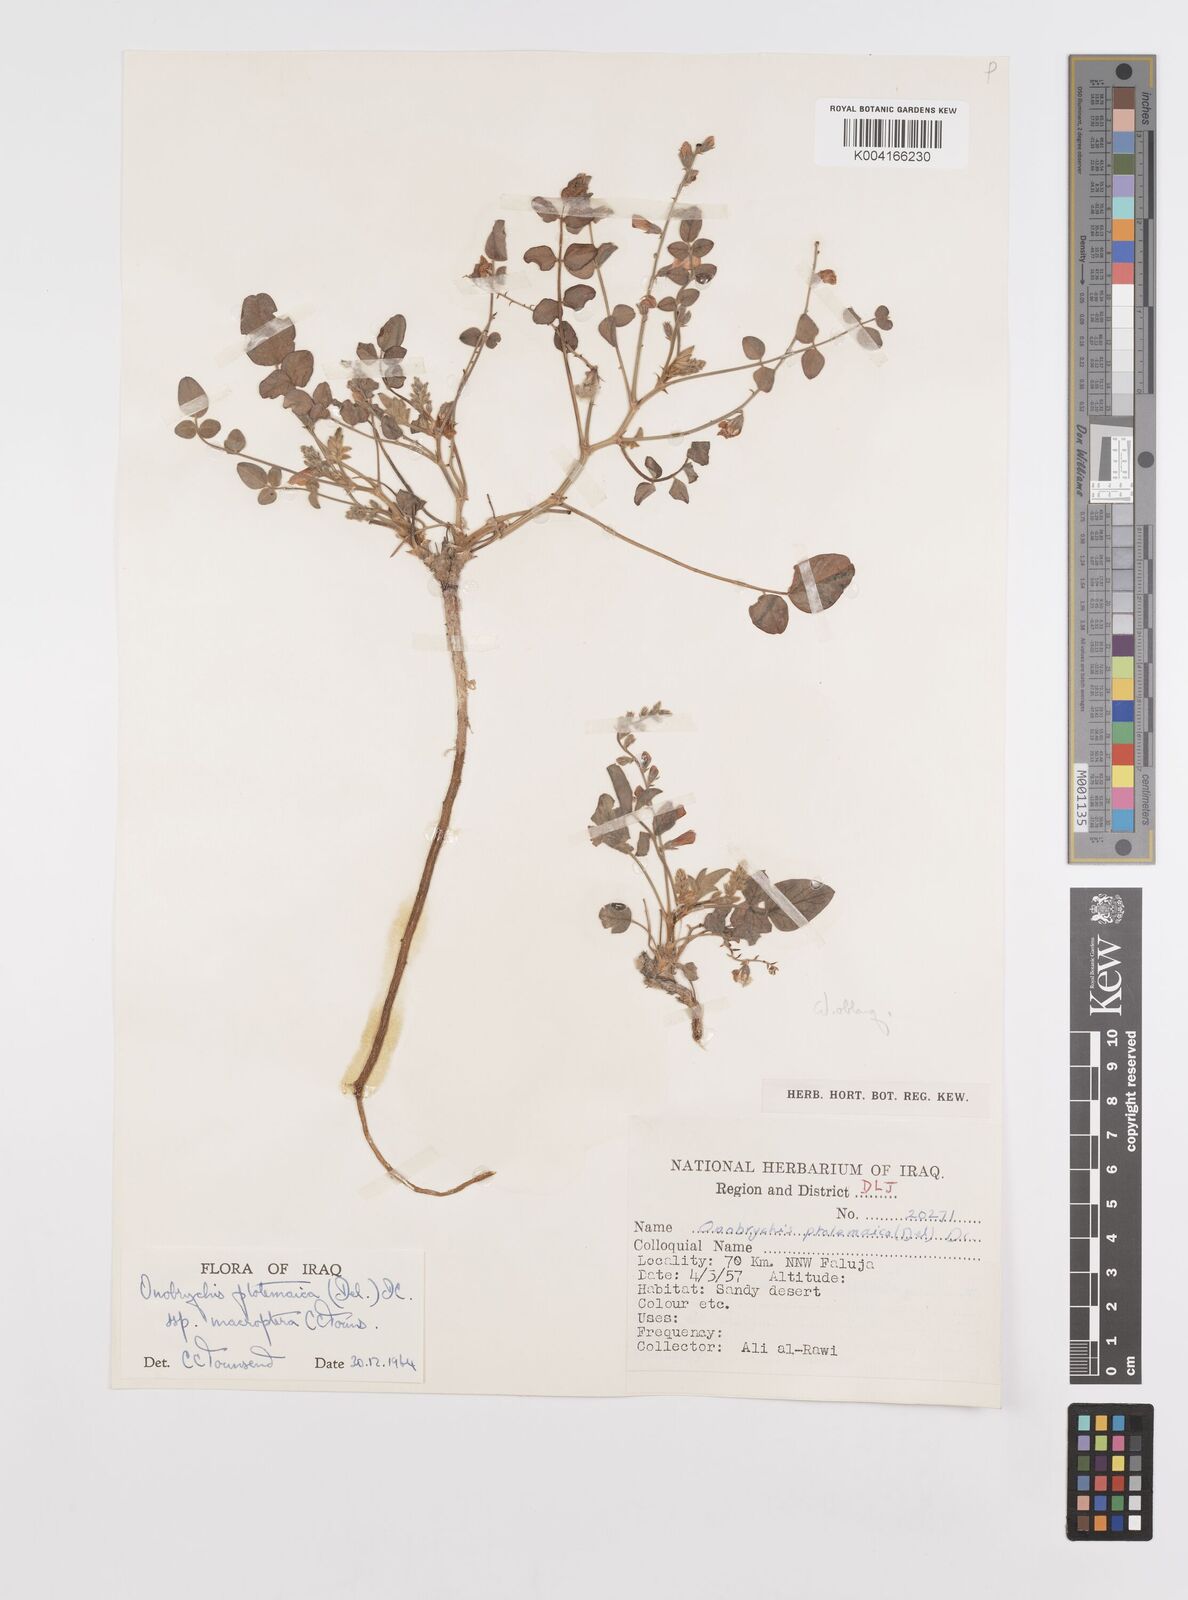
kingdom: Plantae
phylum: Tracheophyta
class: Magnoliopsida
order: Fabales
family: Fabaceae
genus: Onobrychis
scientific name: Onobrychis ptolemaica
